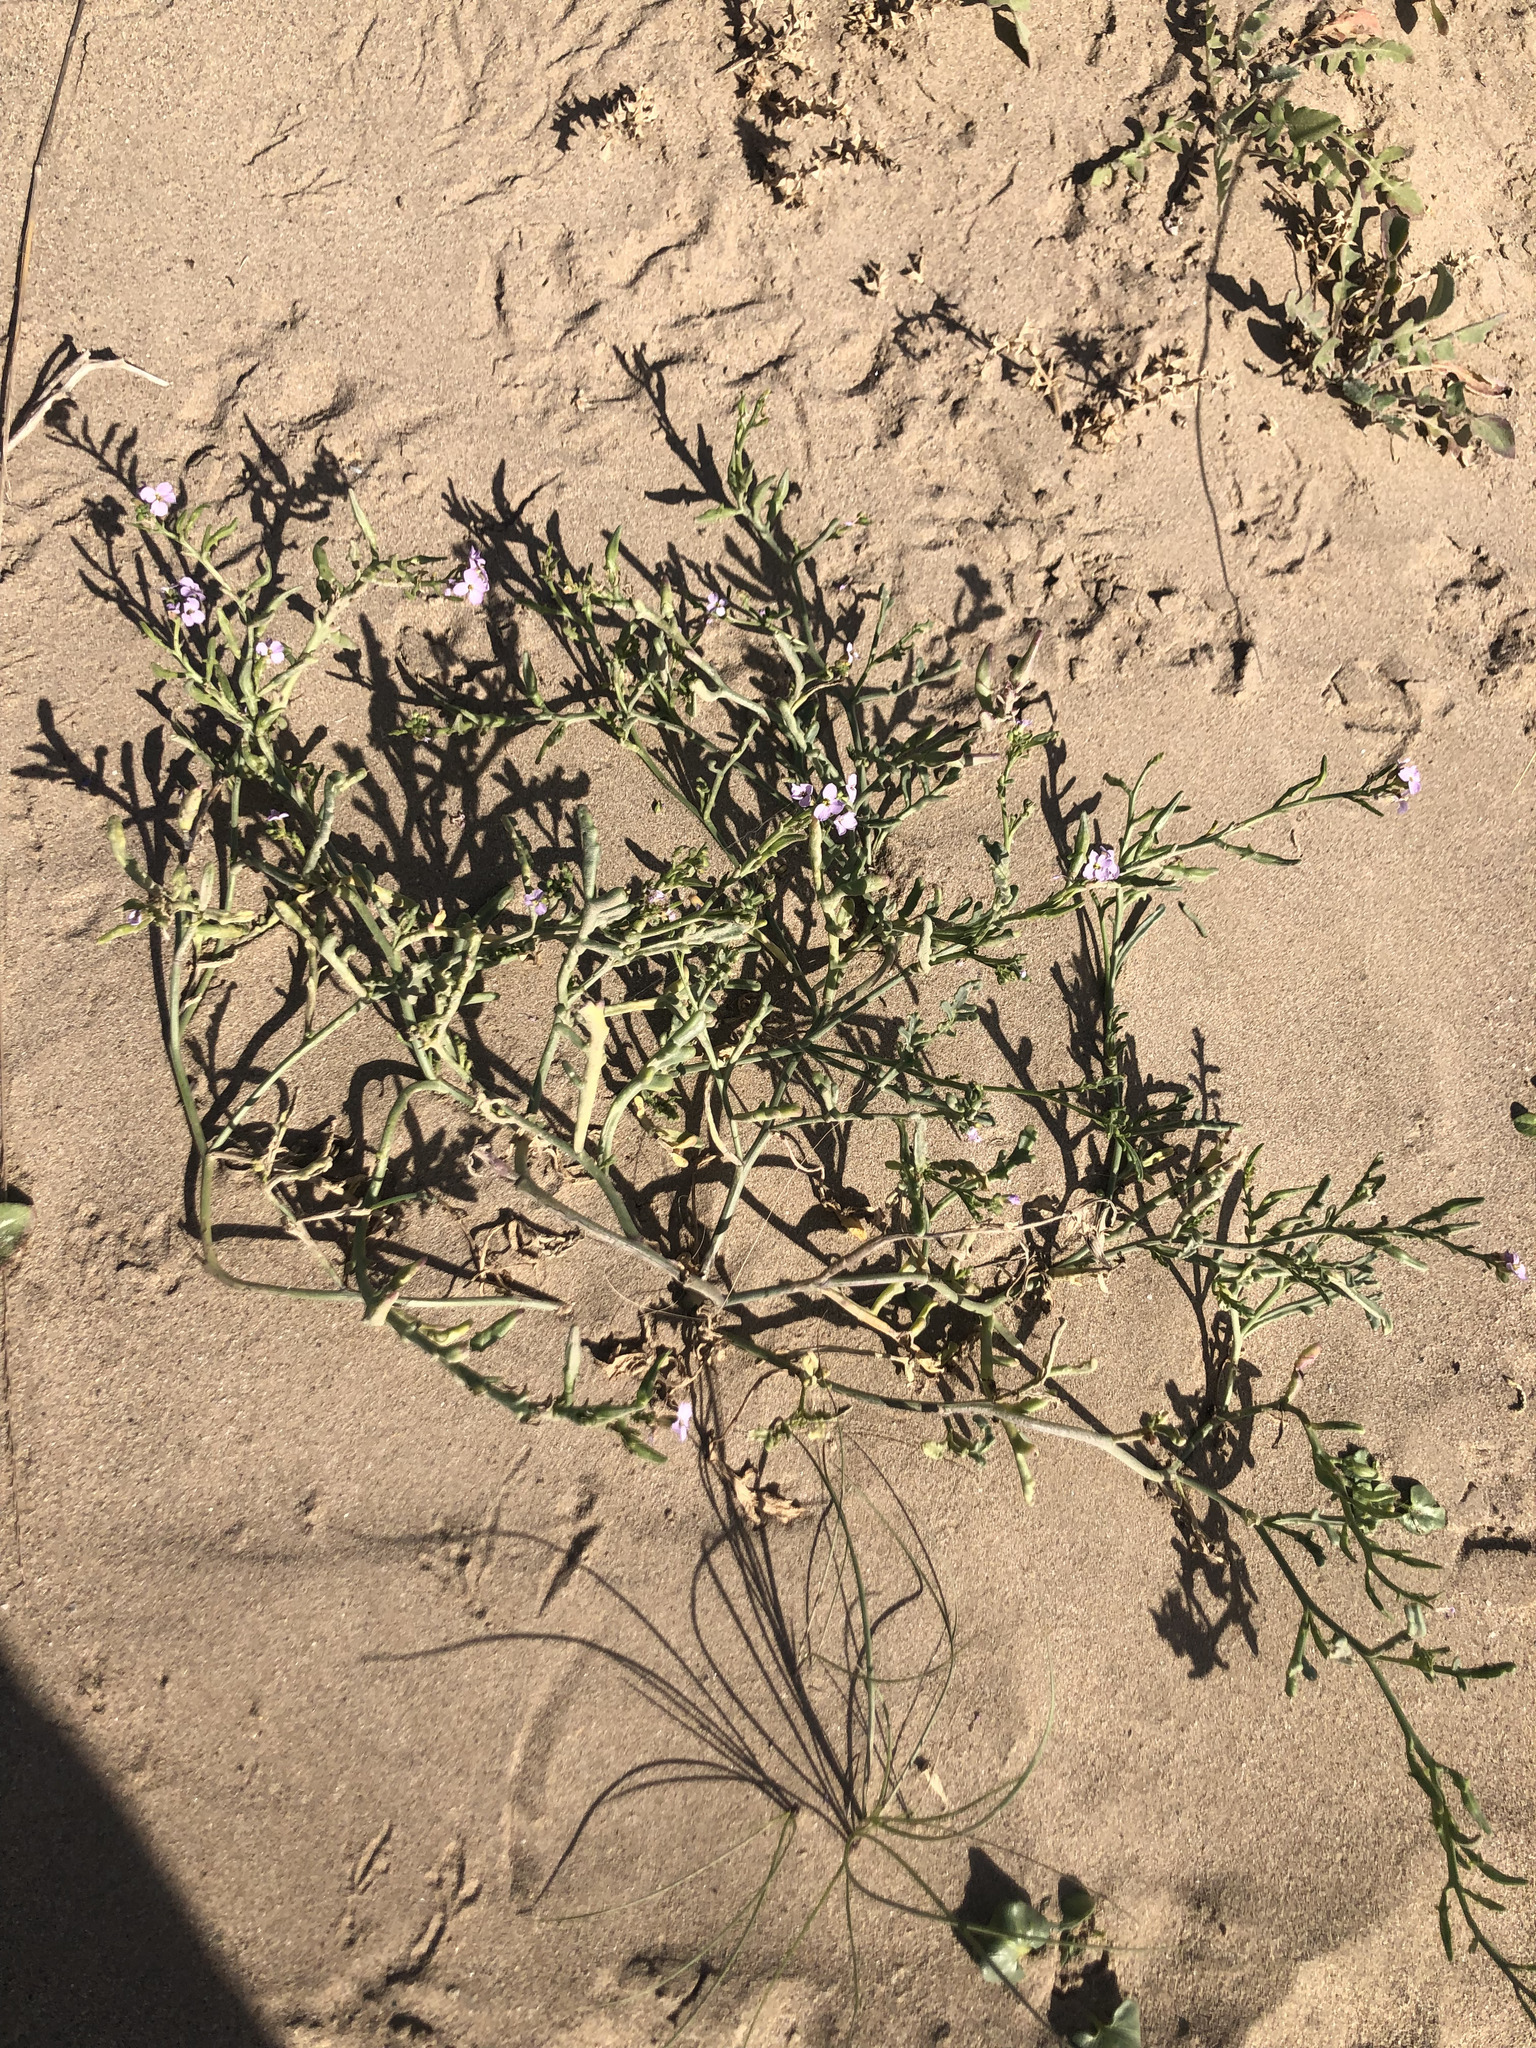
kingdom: Plantae
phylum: Tracheophyta
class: Magnoliopsida
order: Brassicales
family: Brassicaceae
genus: Cakile
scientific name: Cakile maritima
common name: Sea rocket
